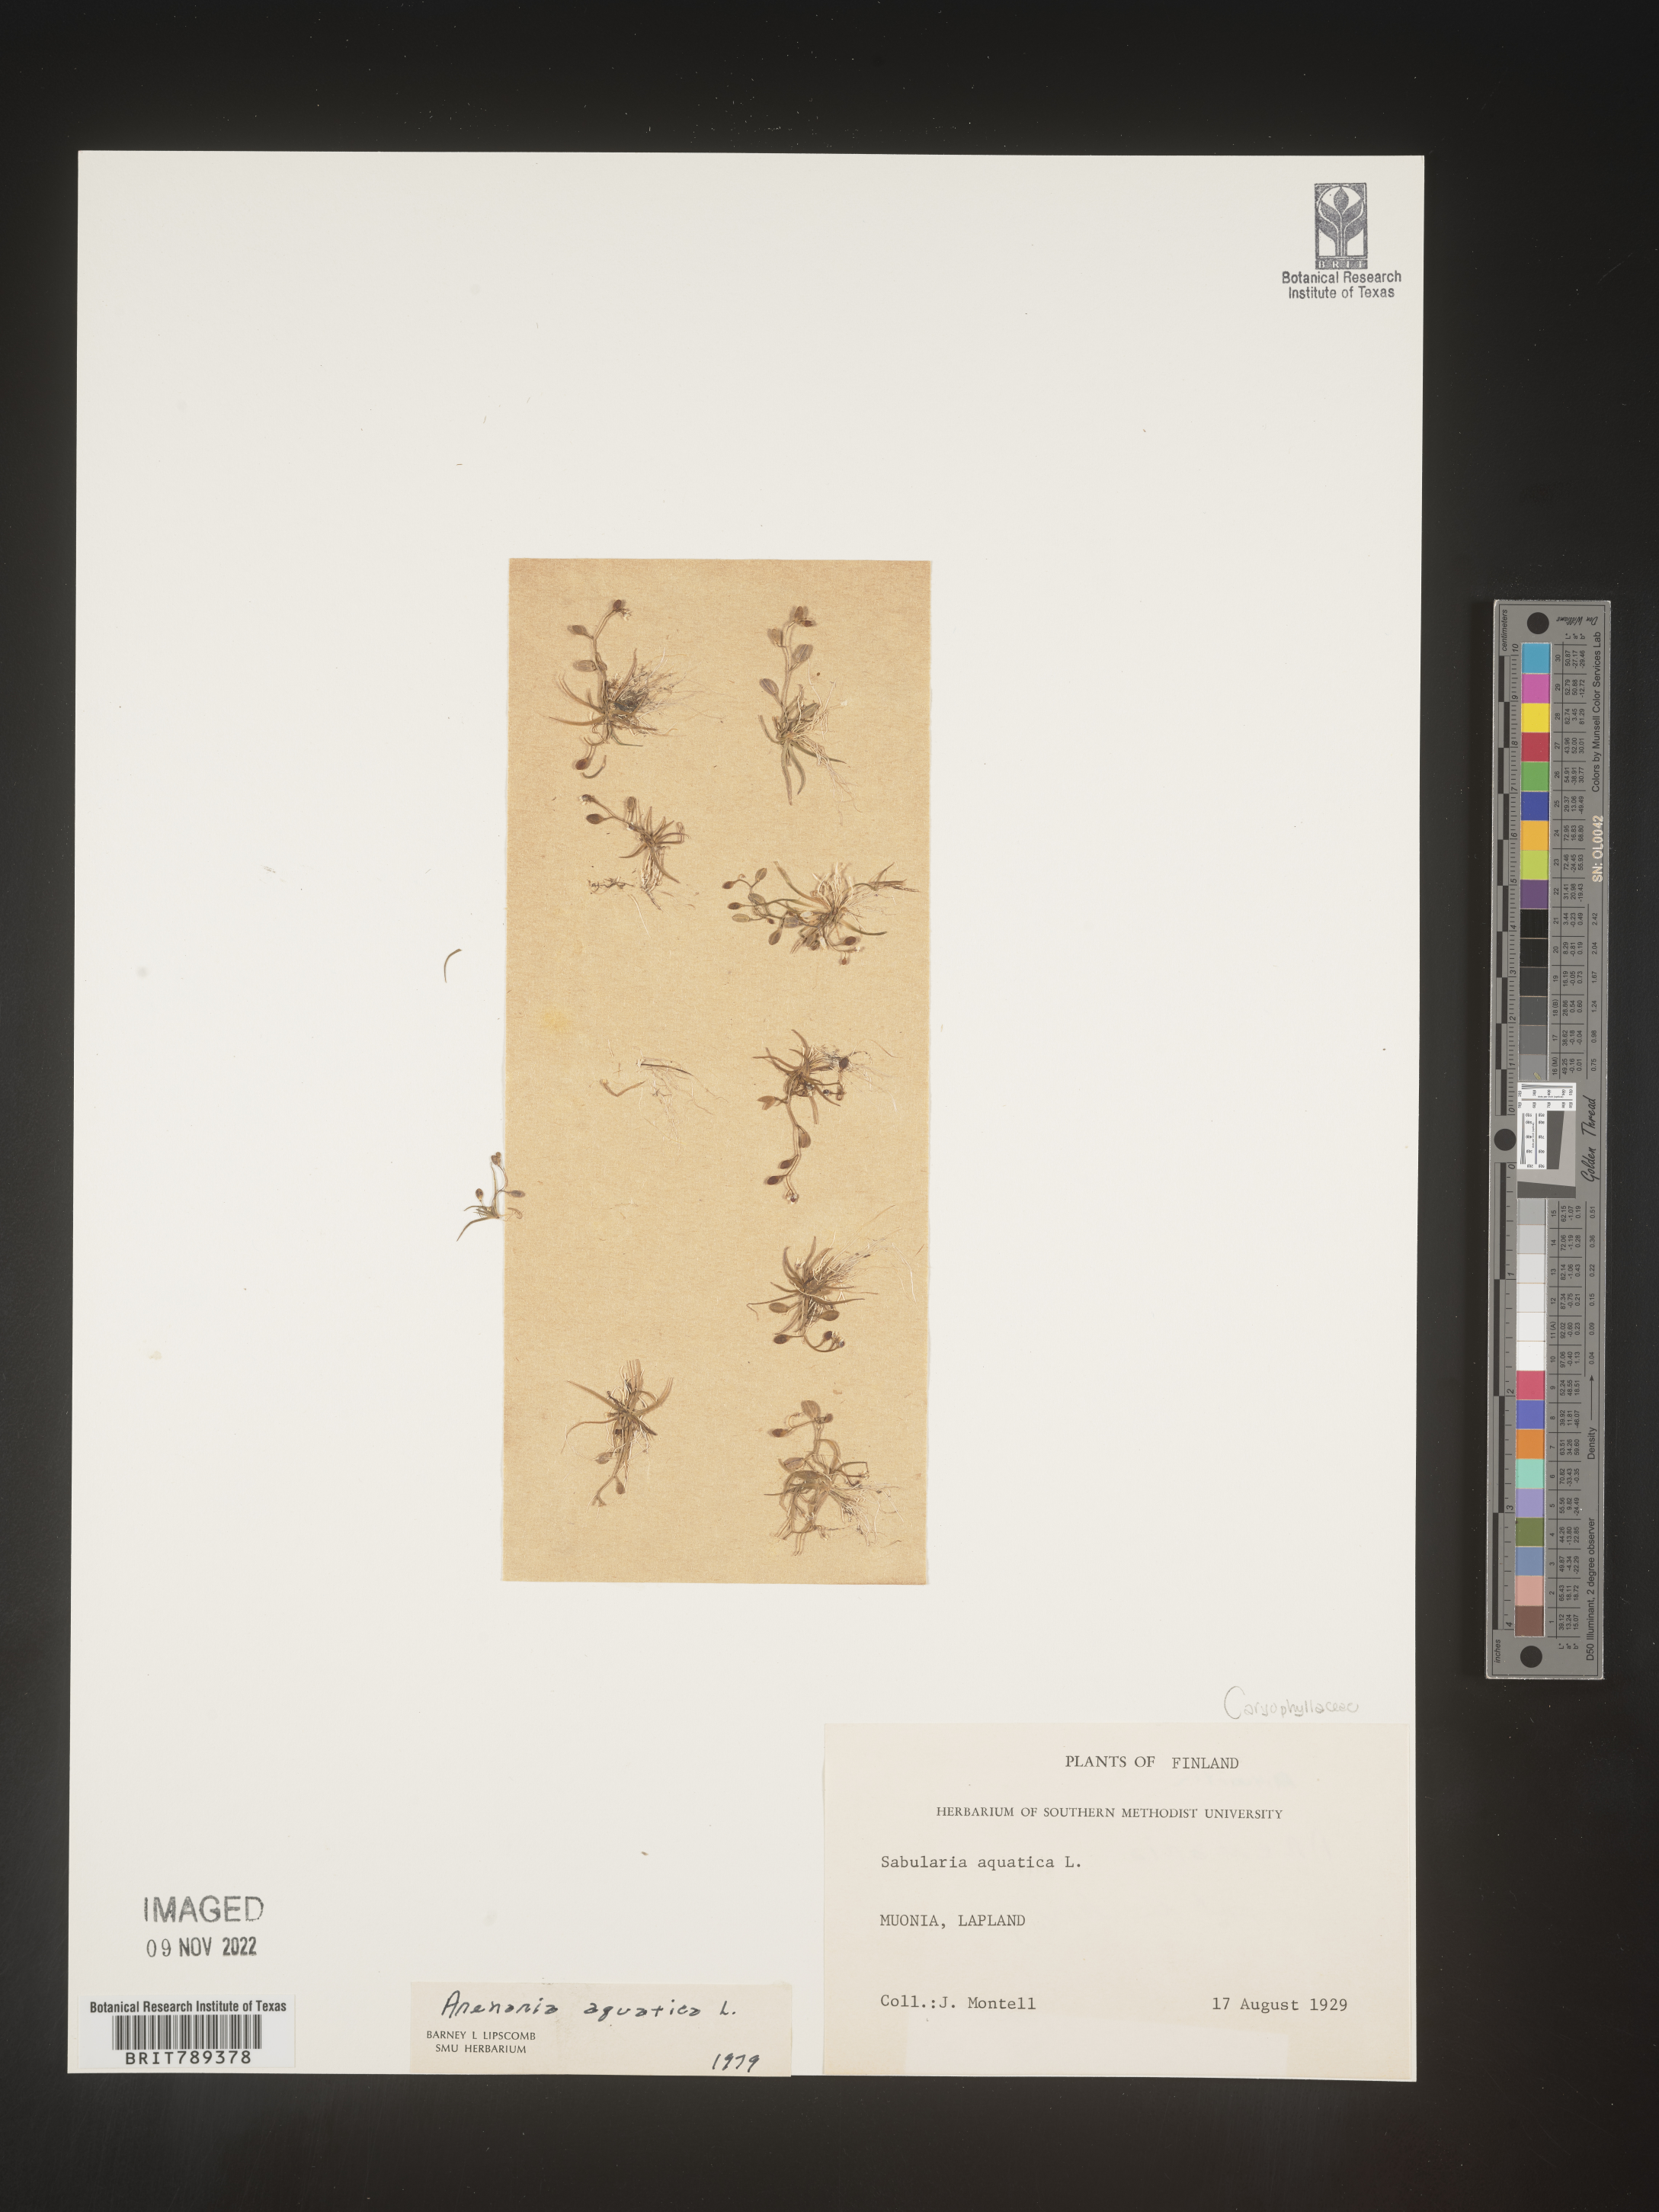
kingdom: Plantae
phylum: Tracheophyta
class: Magnoliopsida
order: Caryophyllales
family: Caryophyllaceae
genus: Arenaria
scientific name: Arenaria
